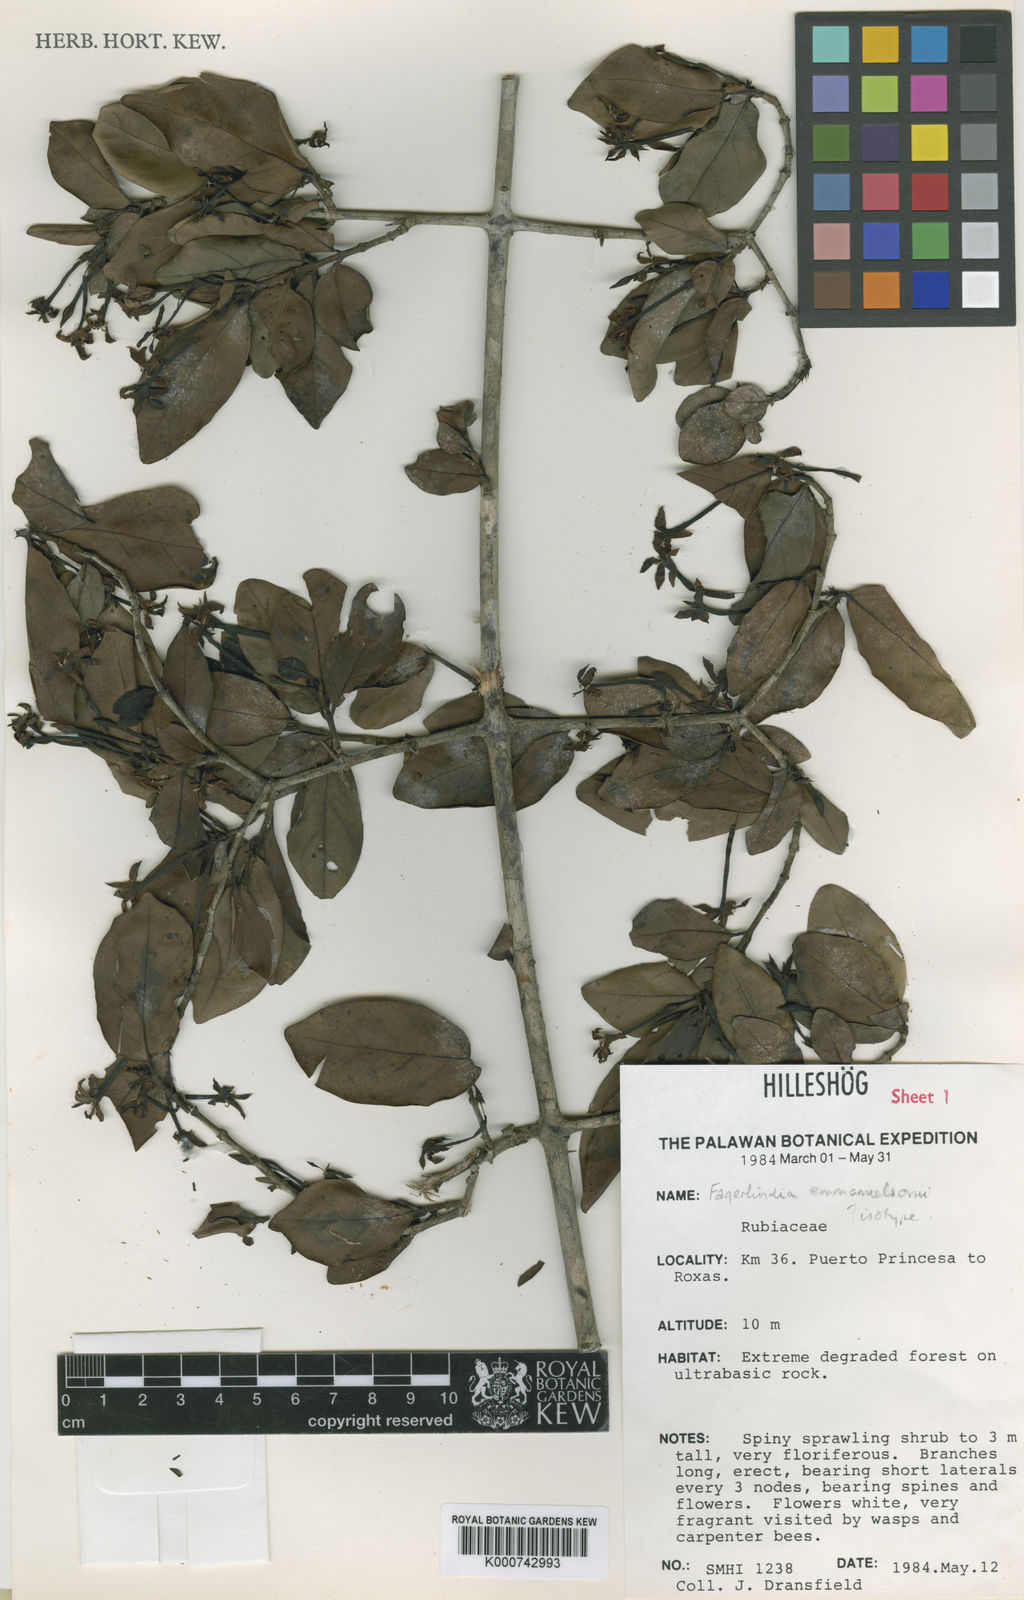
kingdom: Plantae
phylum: Tracheophyta
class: Magnoliopsida
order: Gentianales
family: Rubiaceae
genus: Benkara
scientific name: Benkara emanuelssoniana
